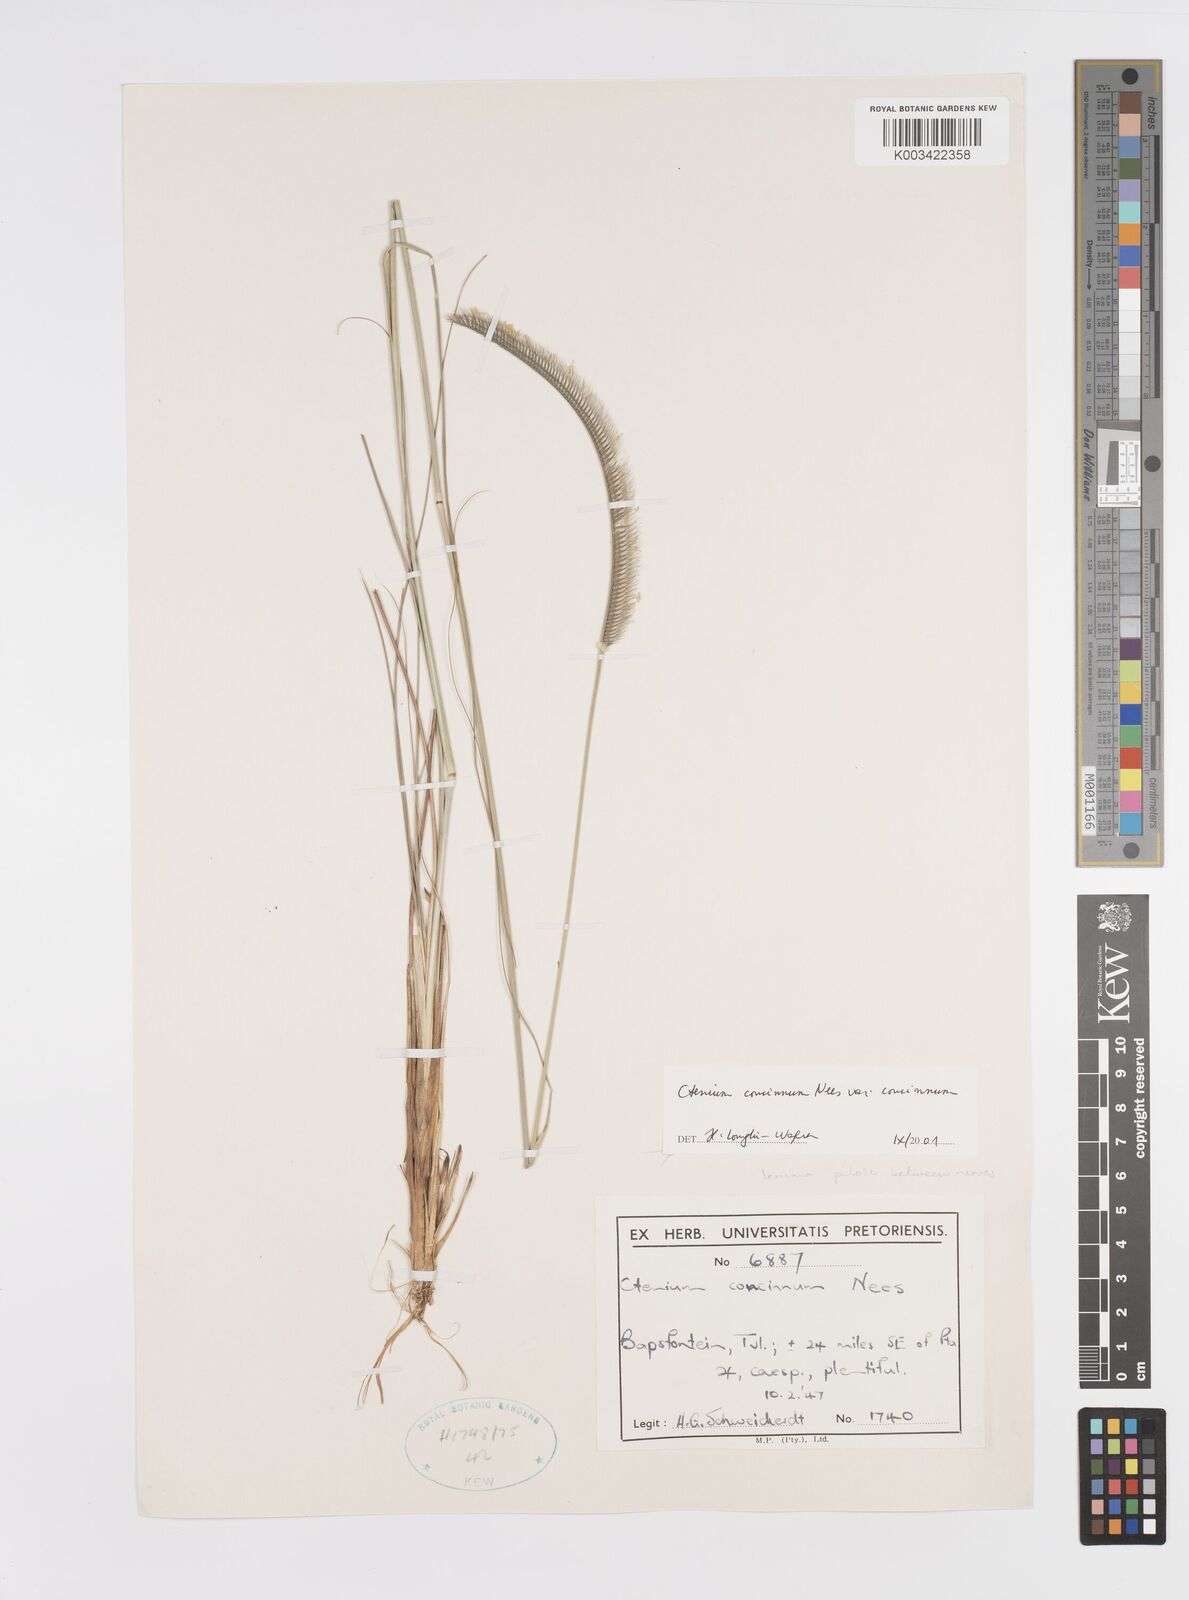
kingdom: Plantae
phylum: Tracheophyta
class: Liliopsida
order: Poales
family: Poaceae
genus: Ctenium
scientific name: Ctenium concinnum
